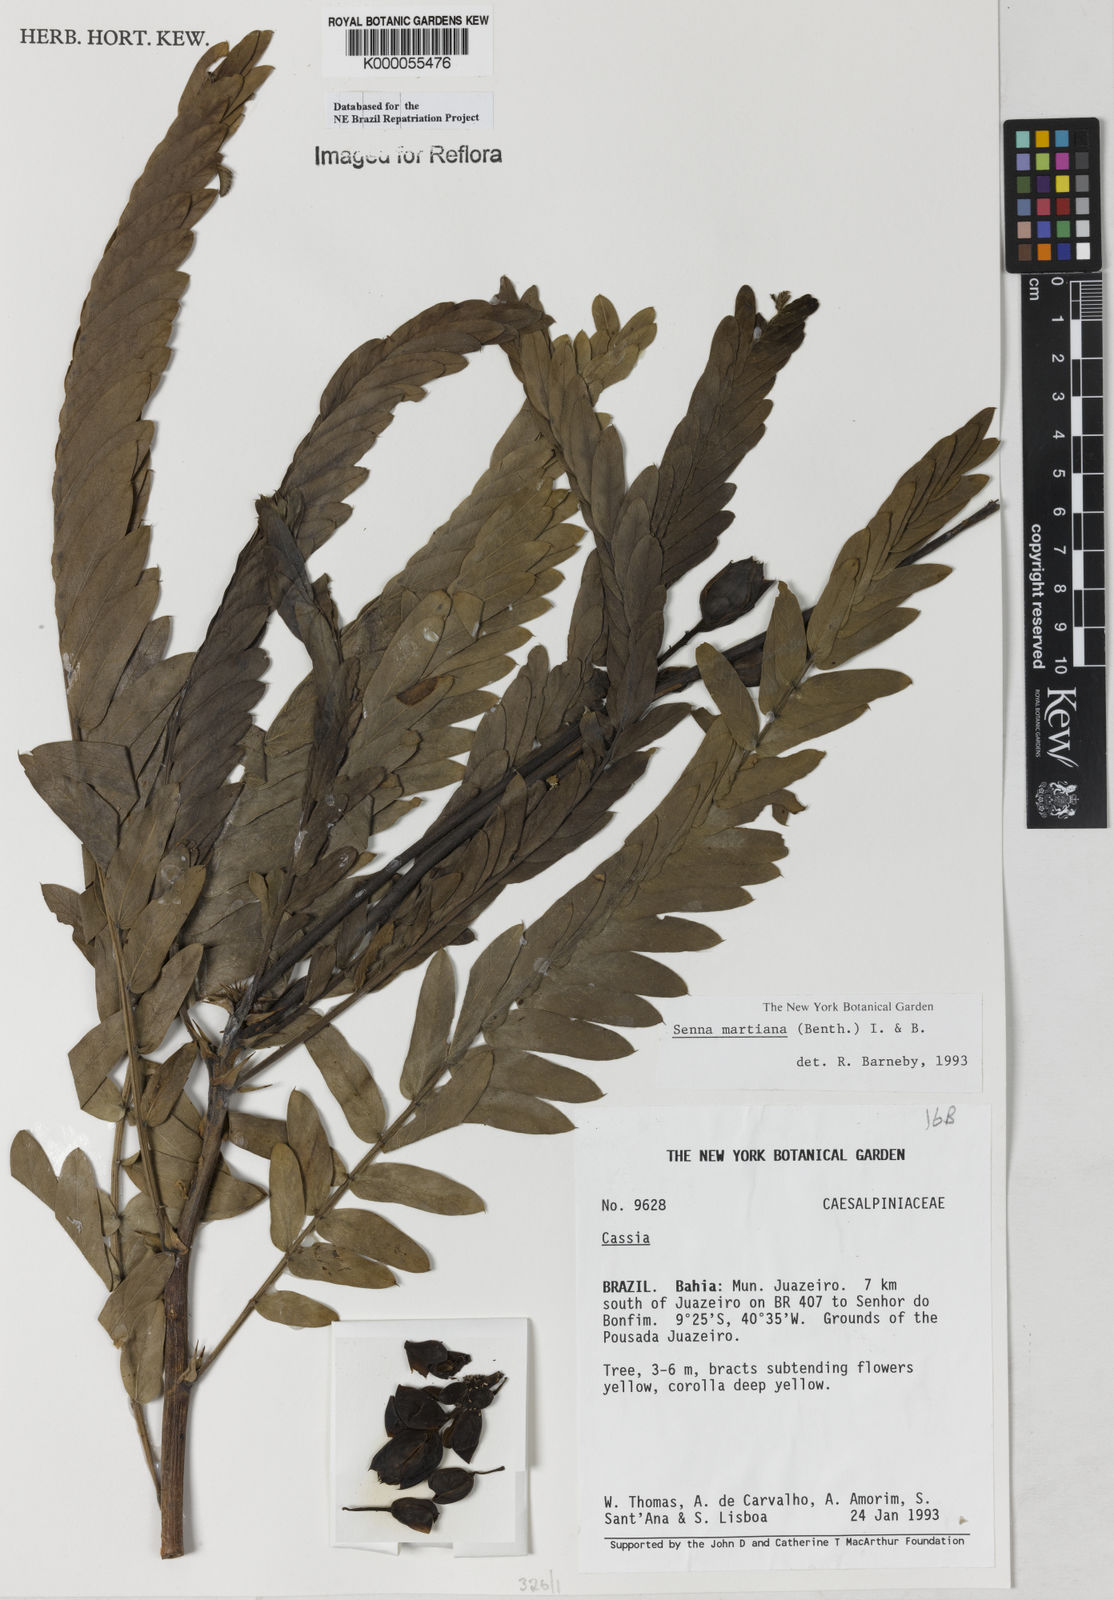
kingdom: Plantae
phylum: Tracheophyta
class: Magnoliopsida
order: Fabales
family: Fabaceae
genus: Senna
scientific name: Senna martiana
